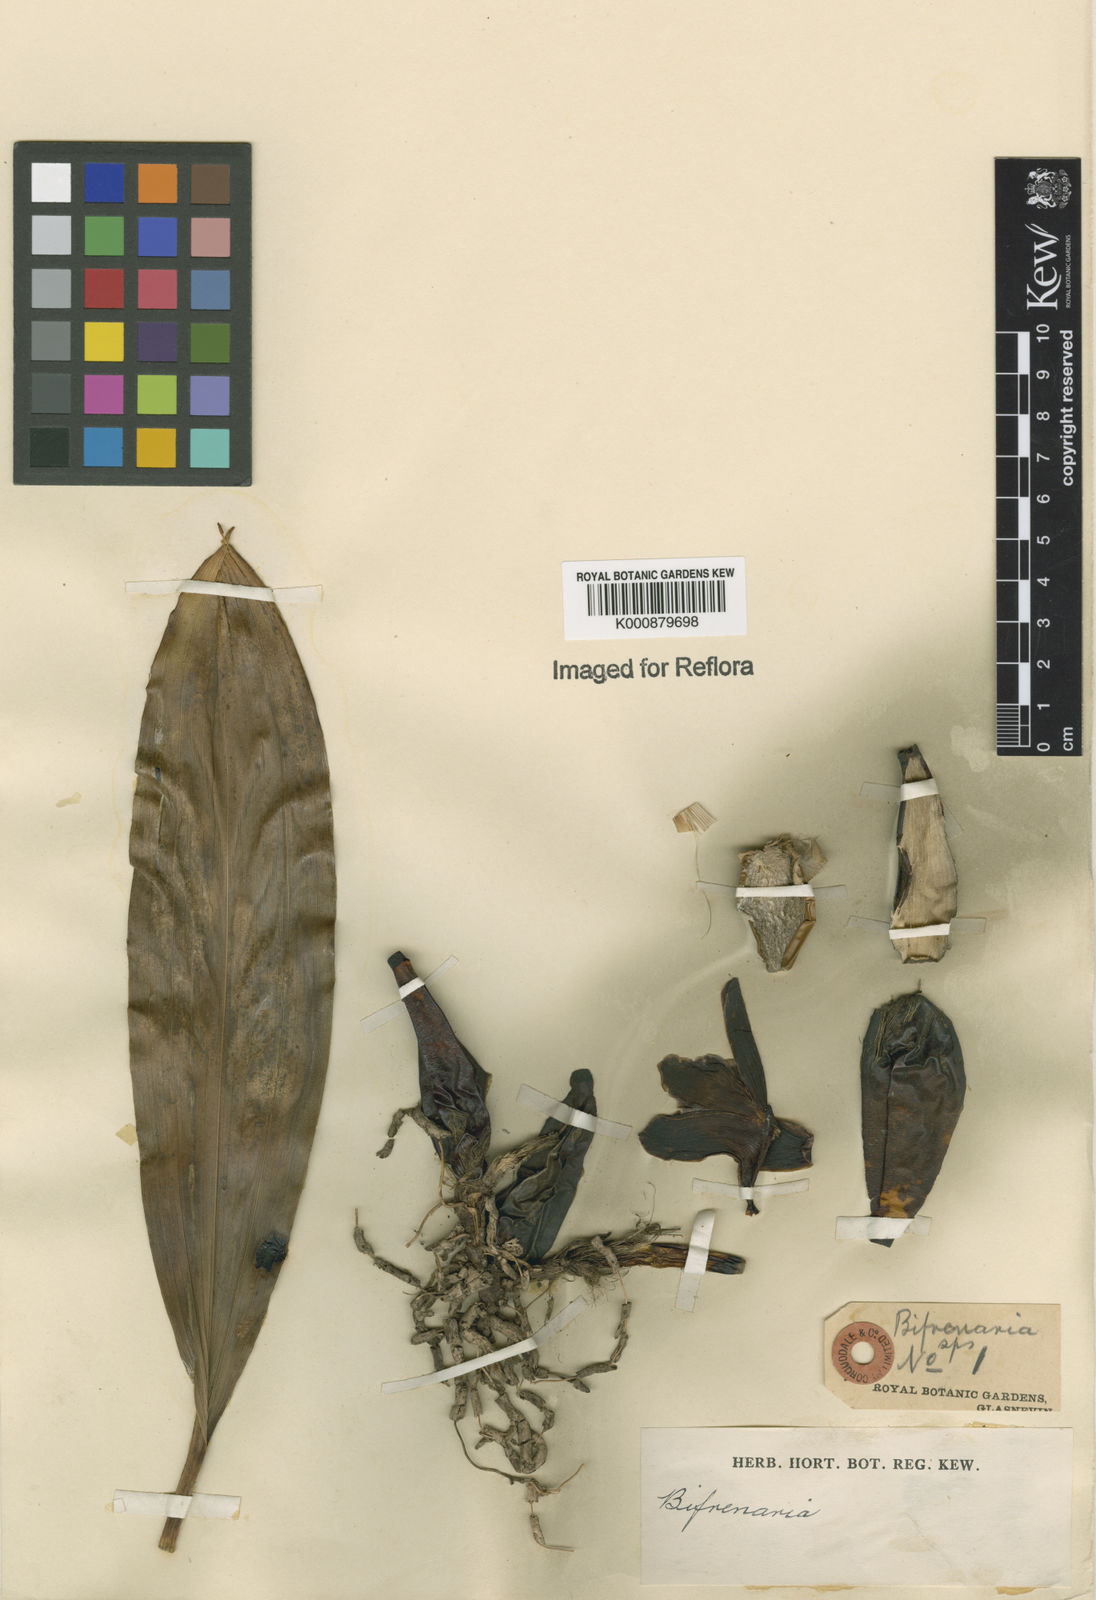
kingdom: Plantae
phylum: Tracheophyta
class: Liliopsida
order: Asparagales
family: Orchidaceae
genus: Bifrenaria
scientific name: Bifrenaria
